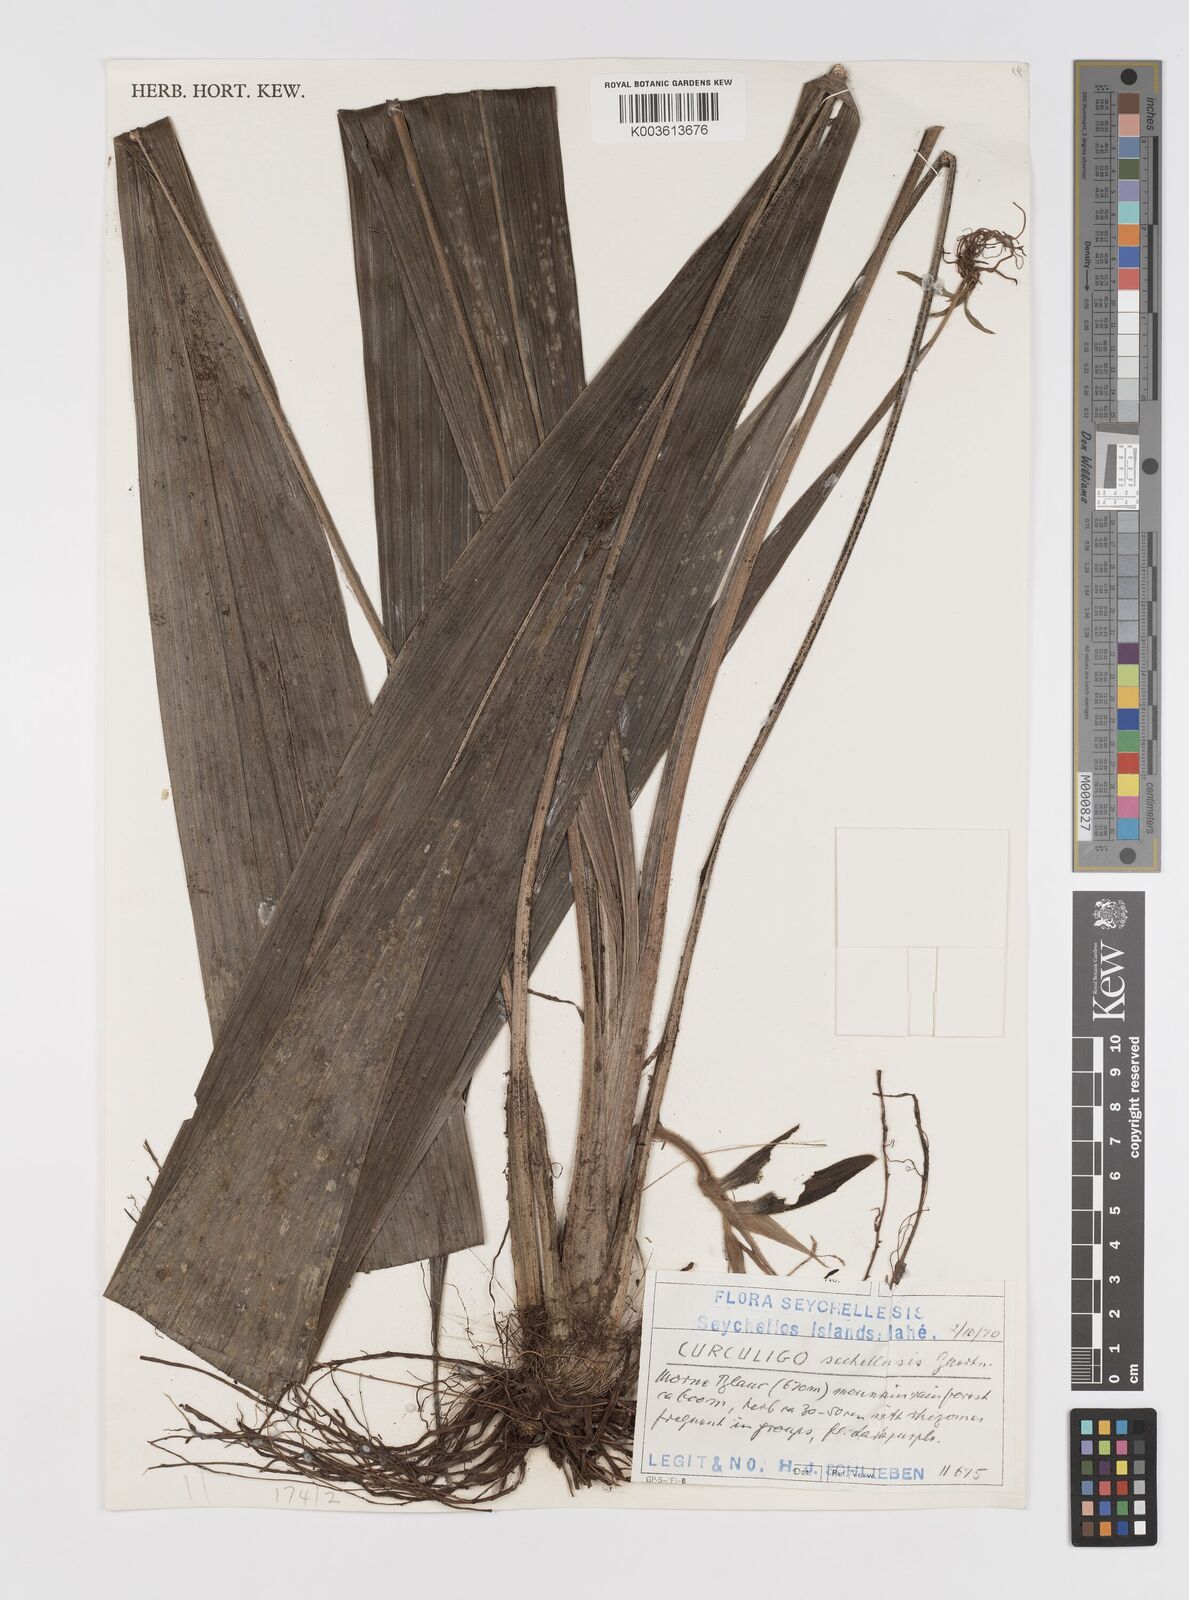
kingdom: Plantae
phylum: Tracheophyta
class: Liliopsida
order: Asparagales
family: Hypoxidaceae
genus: Curculigo
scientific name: Curculigo rhizophylla
